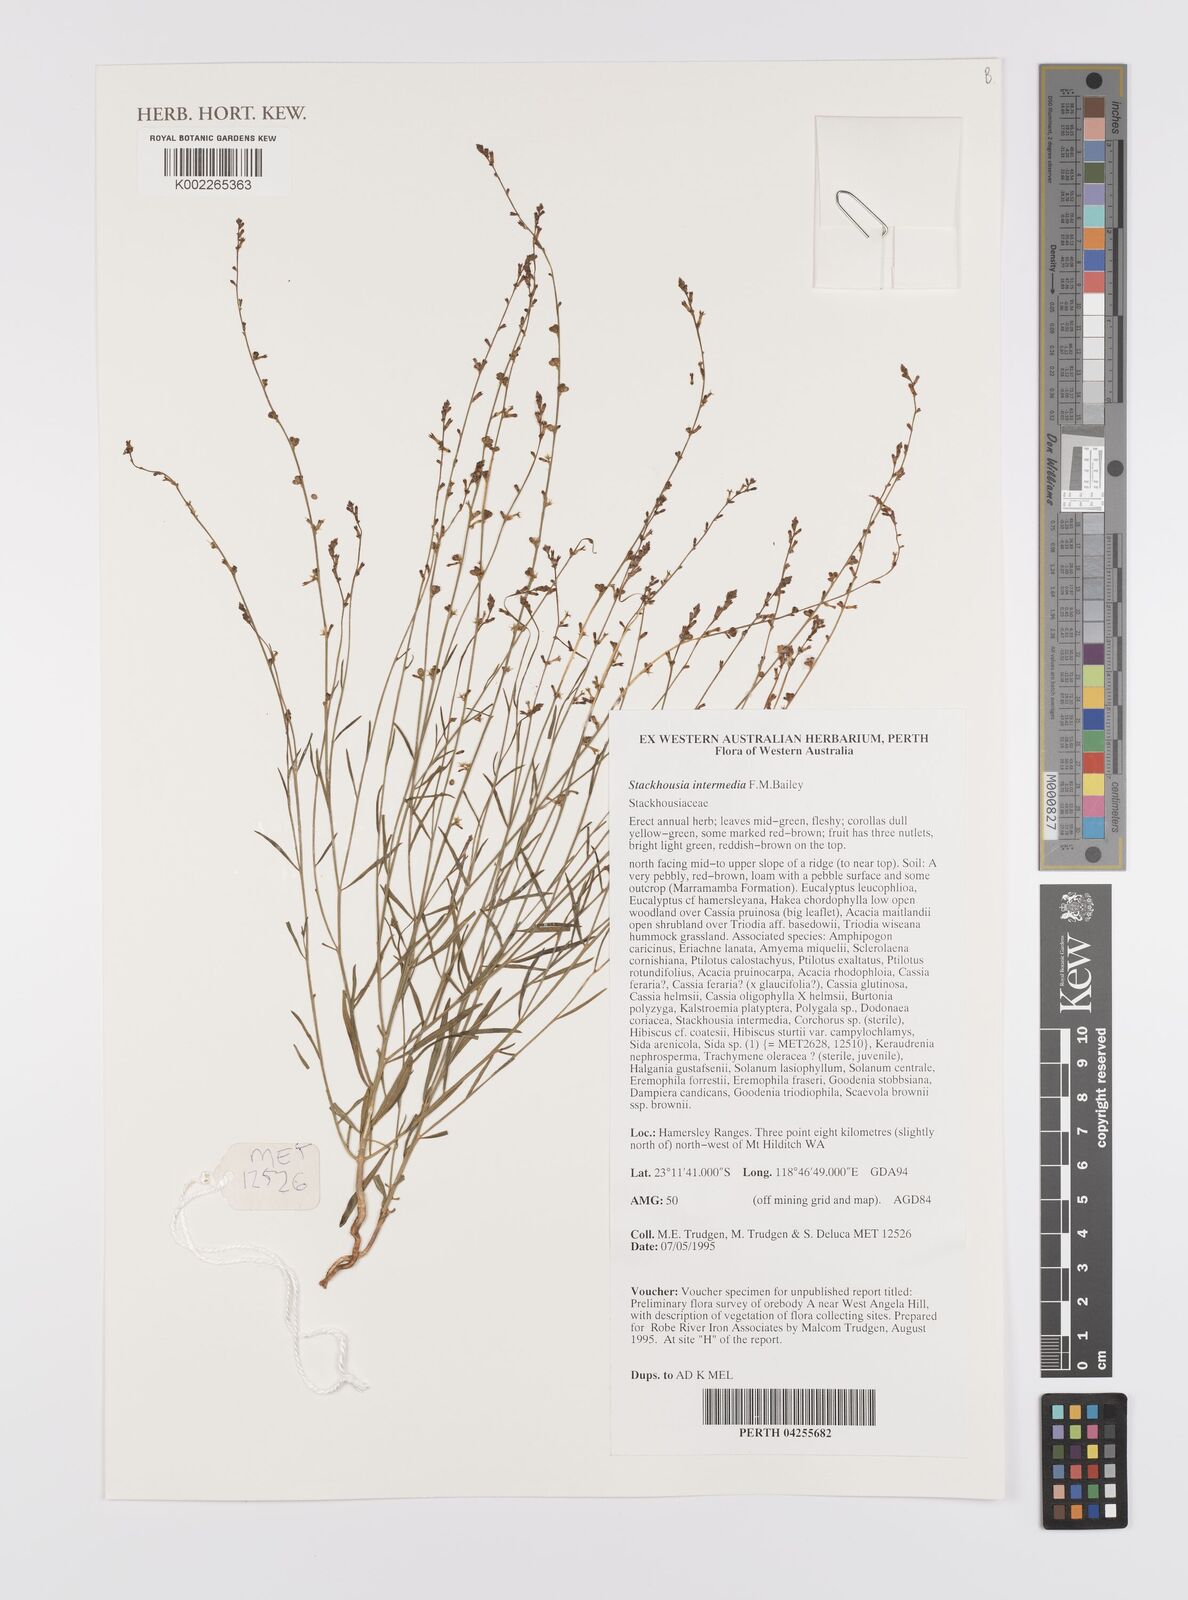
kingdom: Plantae
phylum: Tracheophyta
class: Magnoliopsida
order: Celastrales
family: Celastraceae
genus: Stackhousia
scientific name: Stackhousia intermedia
